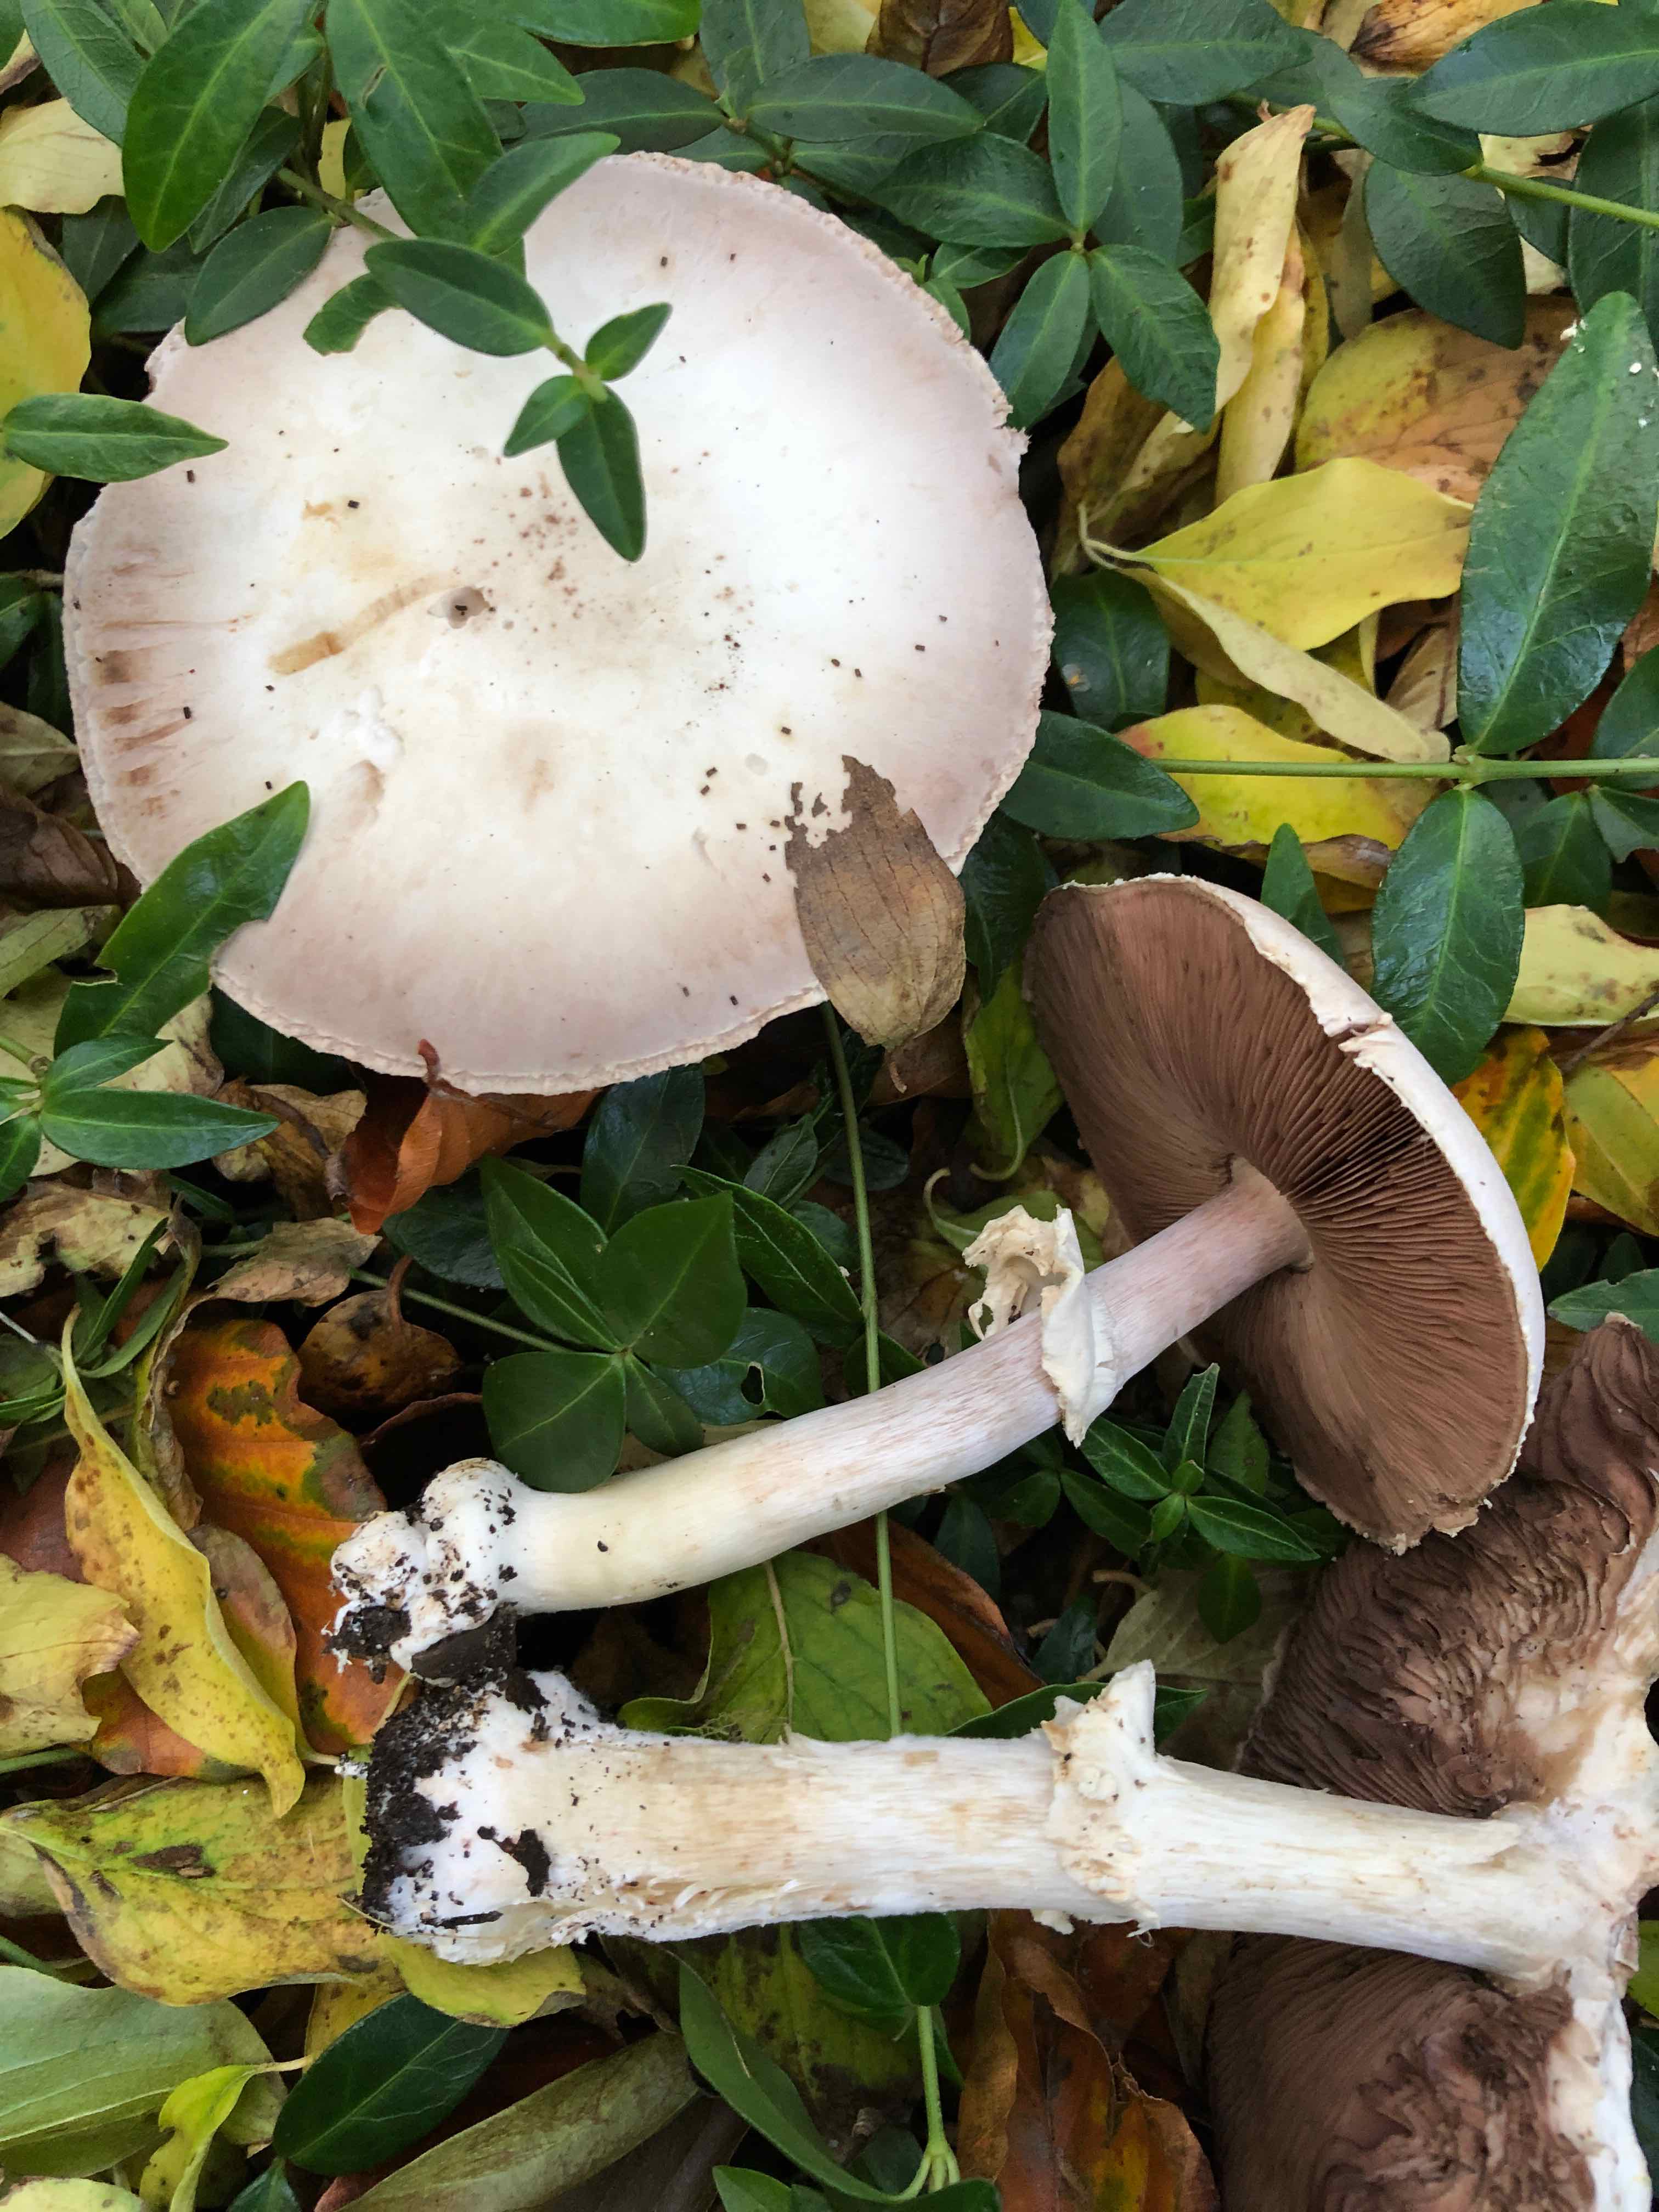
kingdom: Fungi
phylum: Basidiomycota
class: Agaricomycetes
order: Agaricales
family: Agaricaceae
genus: Agaricus
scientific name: Agaricus xanthodermus
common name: karbol-champignon
